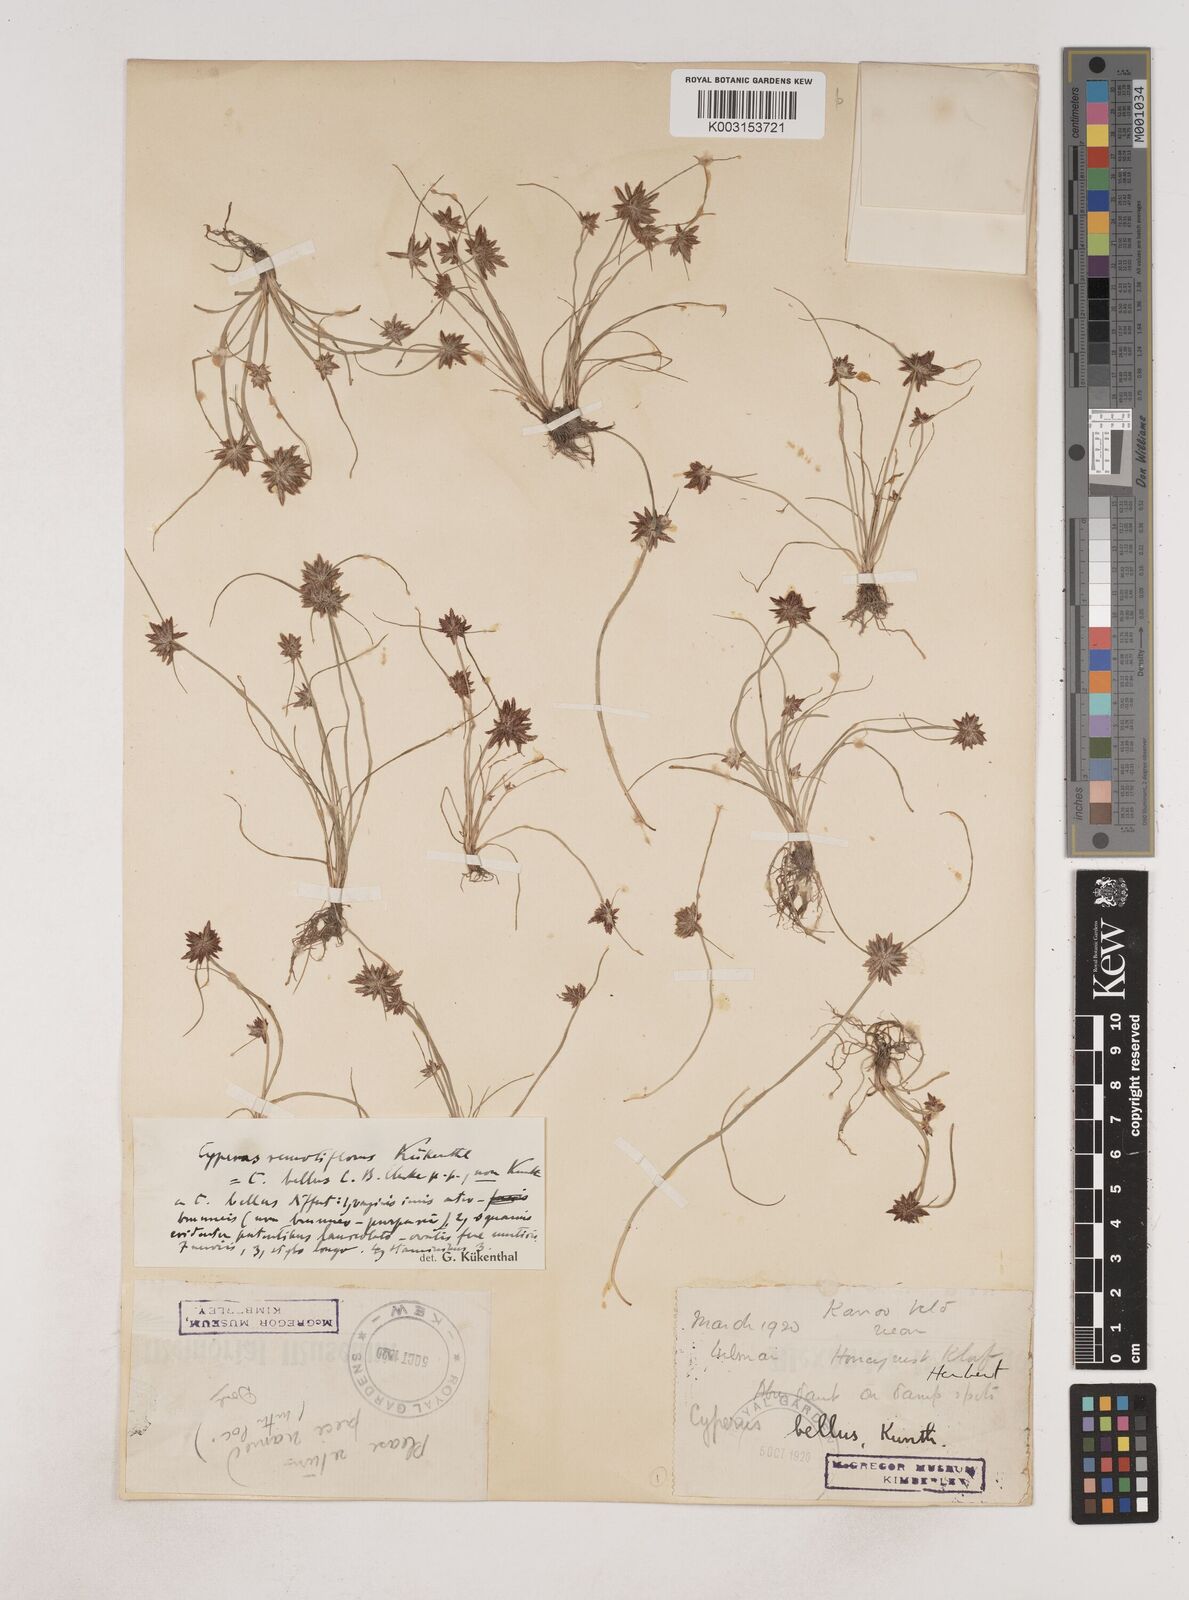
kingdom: Plantae
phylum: Tracheophyta
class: Liliopsida
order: Poales
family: Cyperaceae
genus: Cyperus
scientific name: Cyperus remotiflorus
